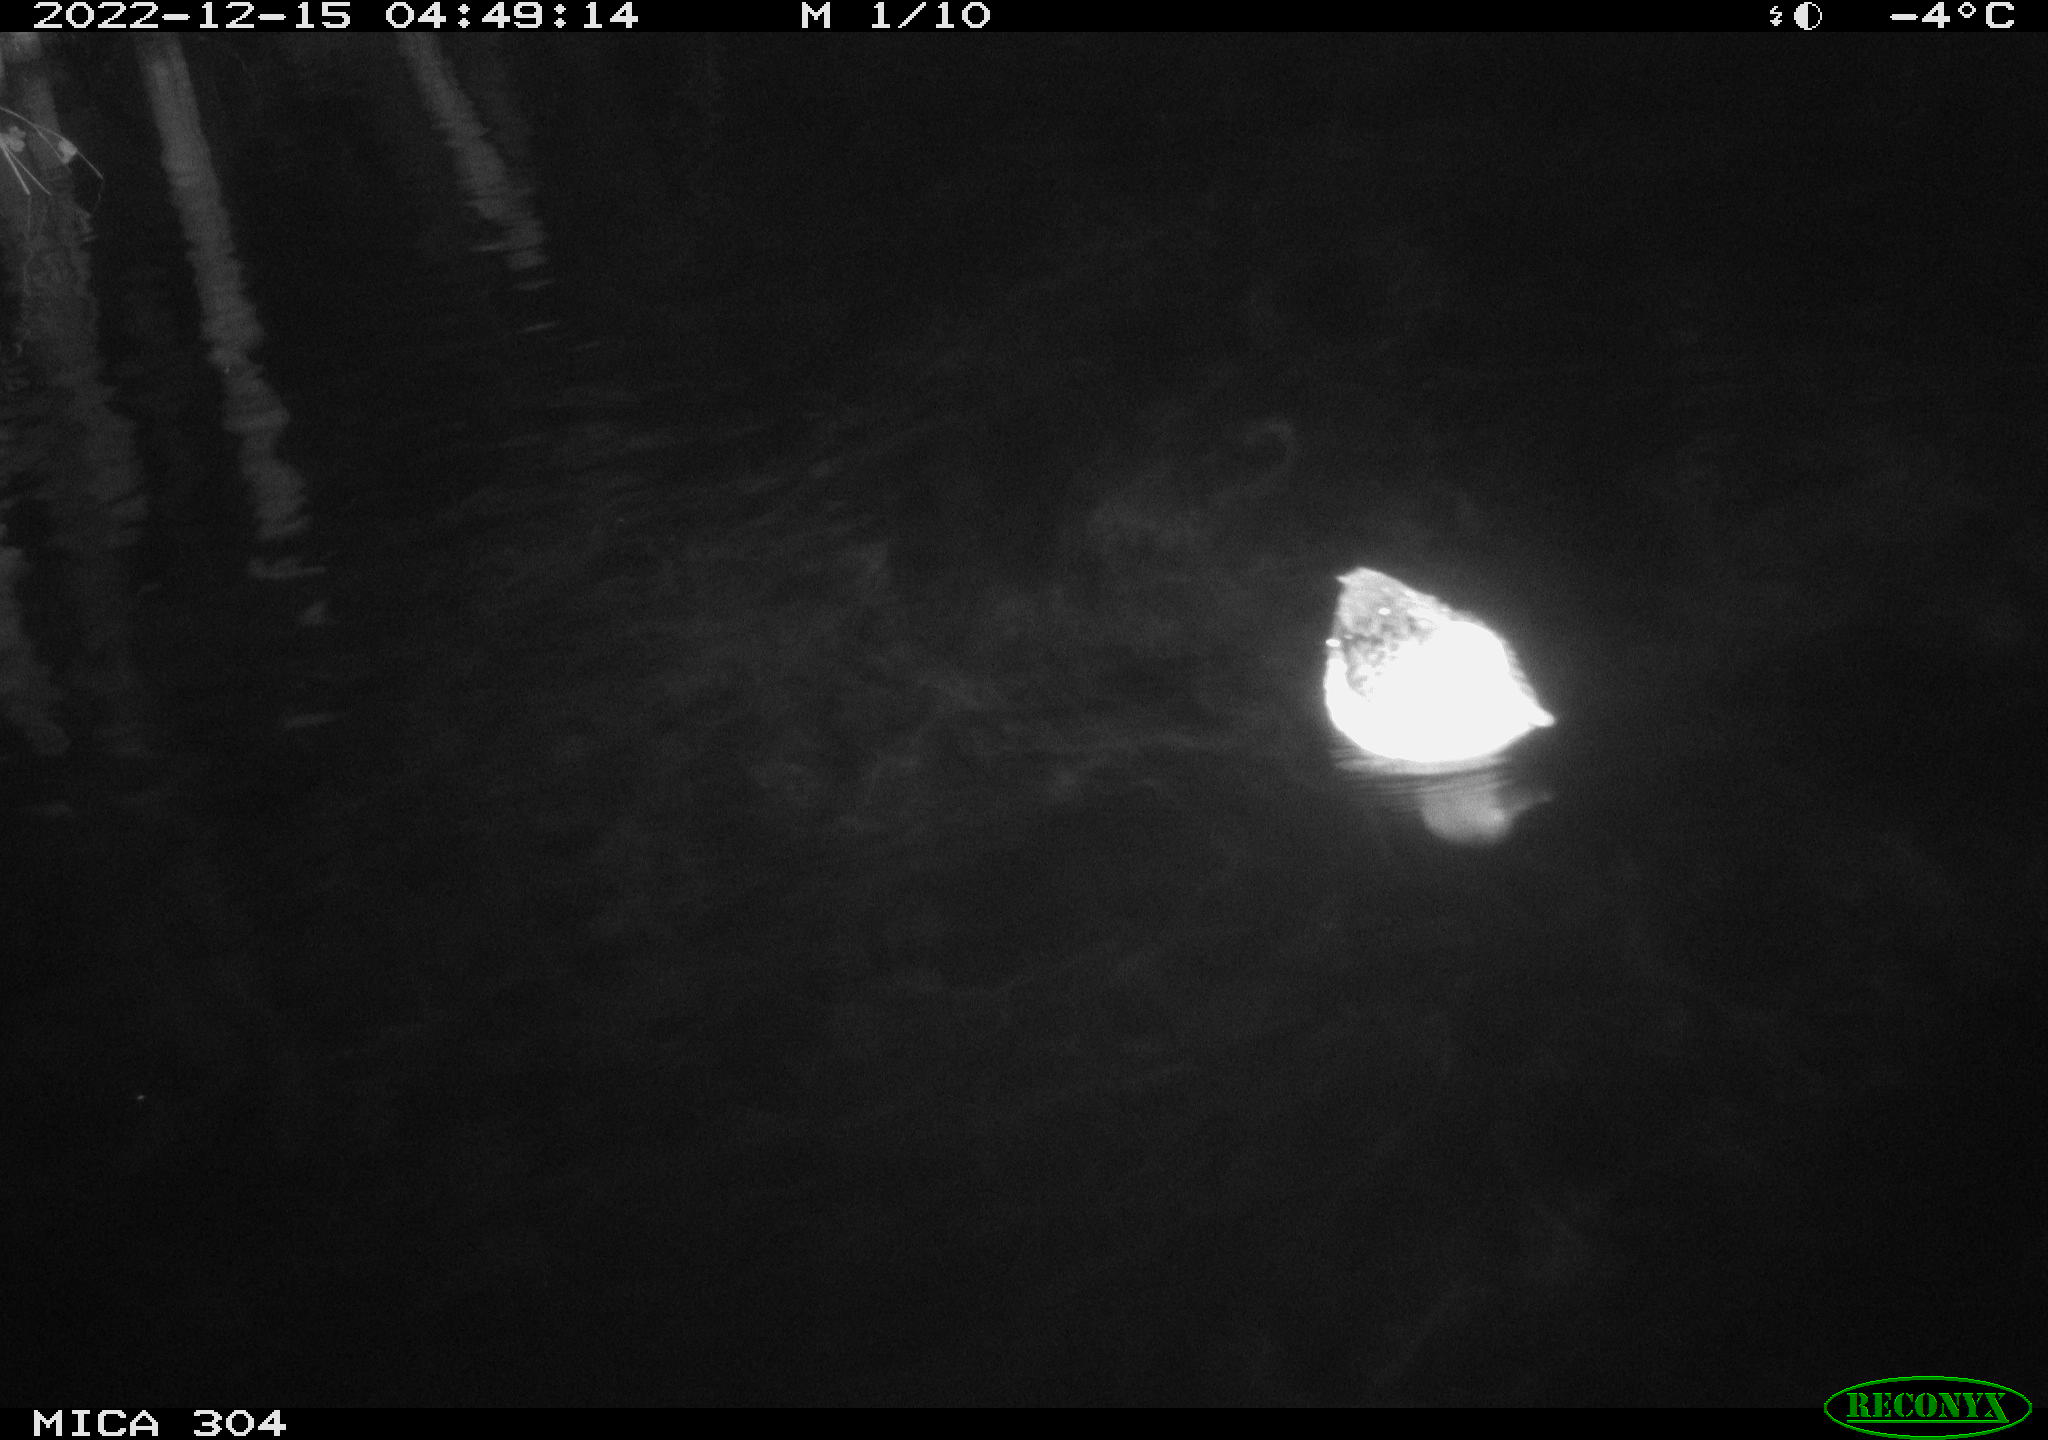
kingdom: Animalia
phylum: Chordata
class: Aves
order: Anseriformes
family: Anatidae
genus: Anas
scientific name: Anas
